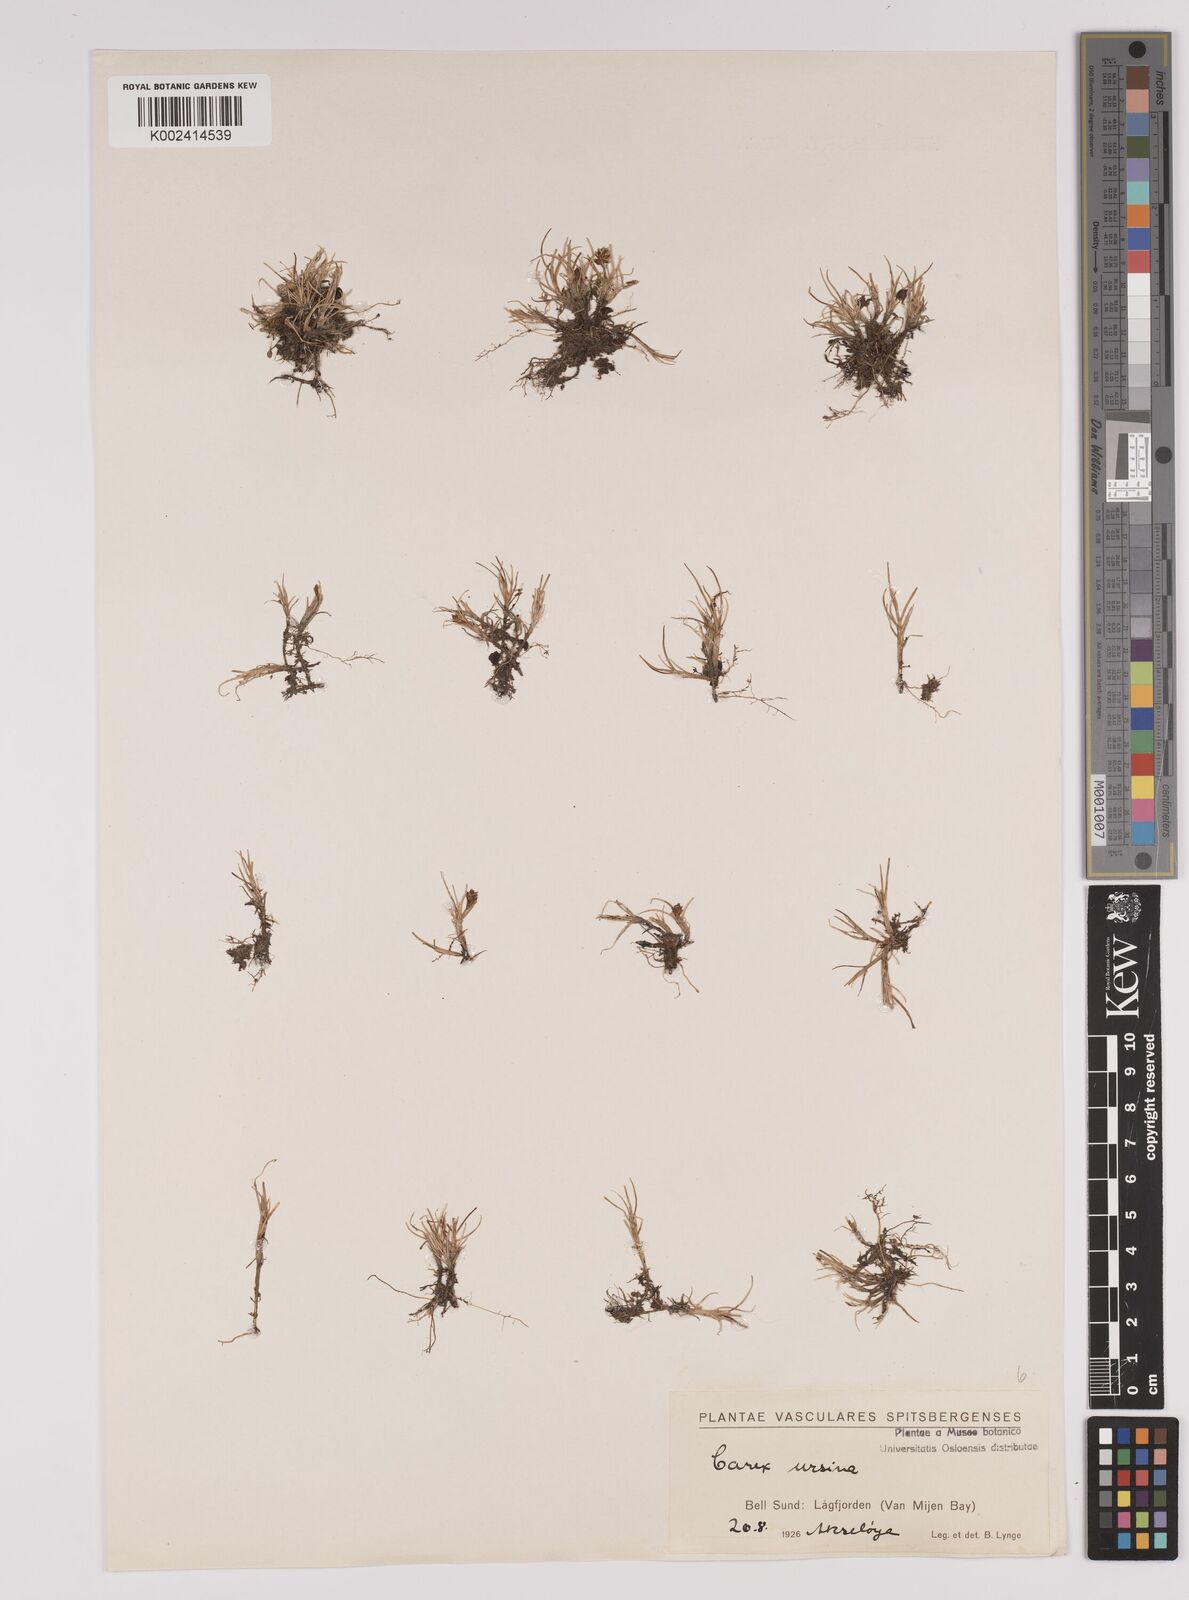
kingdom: Plantae
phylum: Tracheophyta
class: Liliopsida
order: Poales
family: Cyperaceae
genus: Carex
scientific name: Carex ursina
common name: Bear sedge
